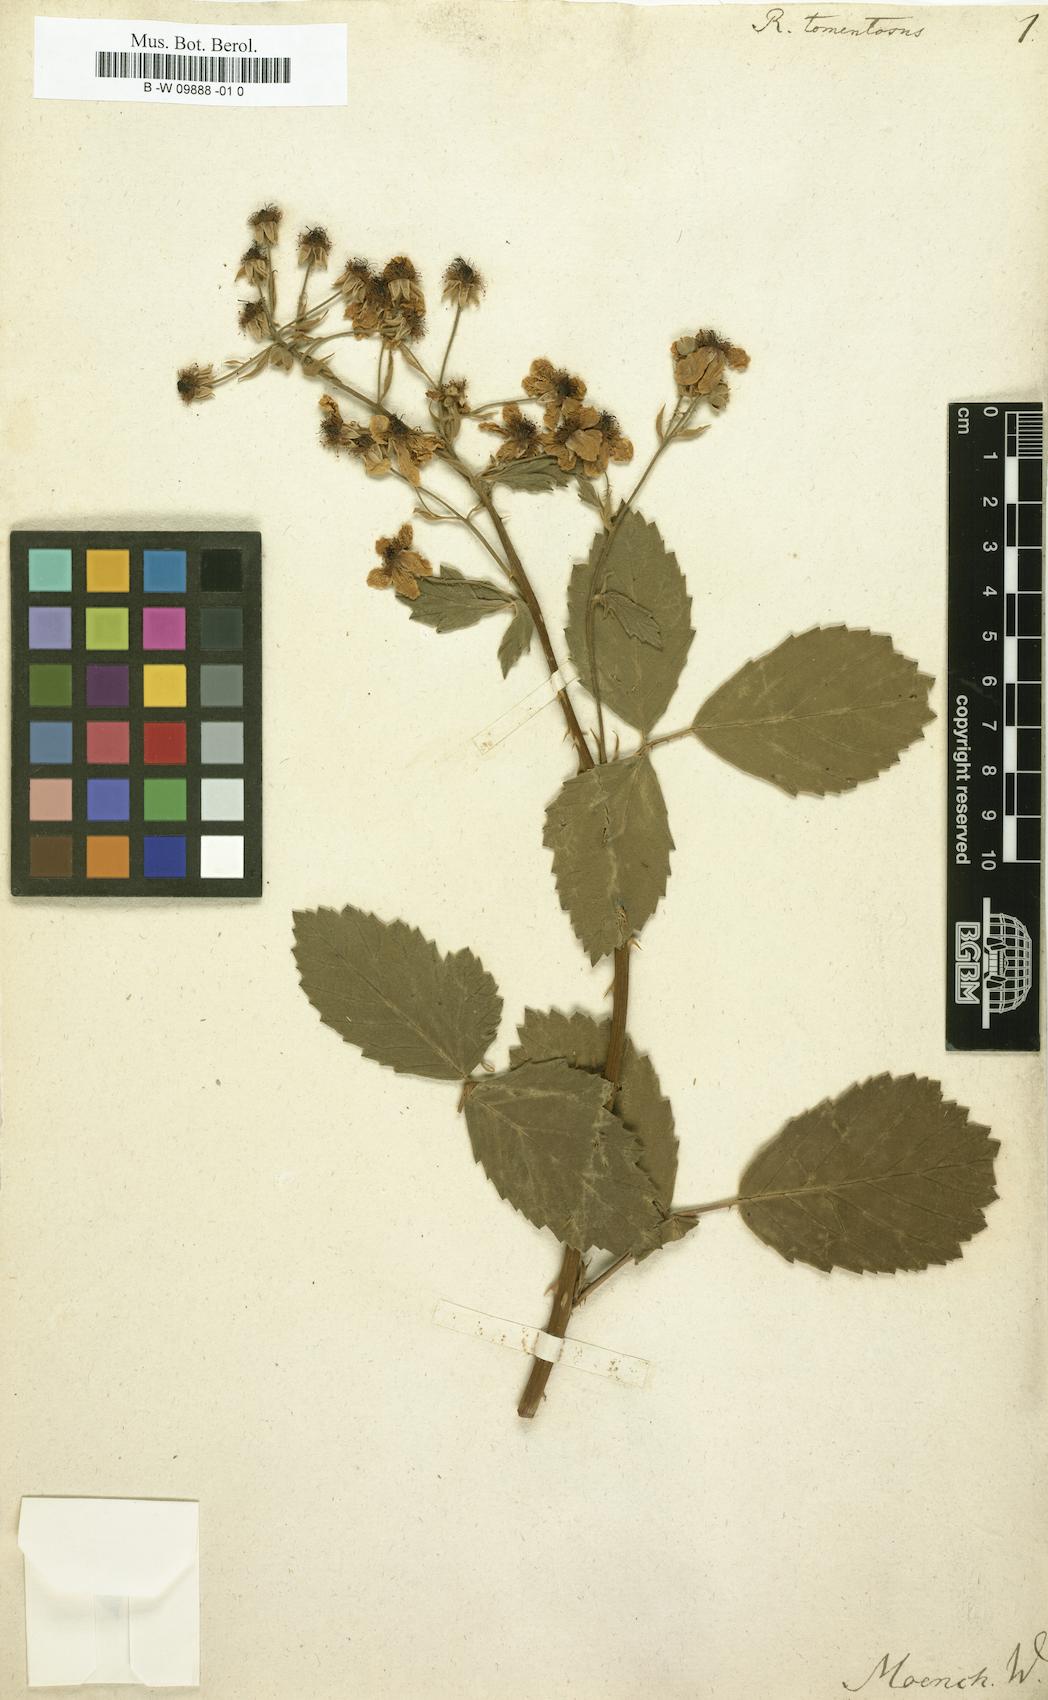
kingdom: Plantae
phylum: Tracheophyta
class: Magnoliopsida
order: Rosales
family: Rosaceae
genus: Rubus
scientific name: Rubus aetnicus
